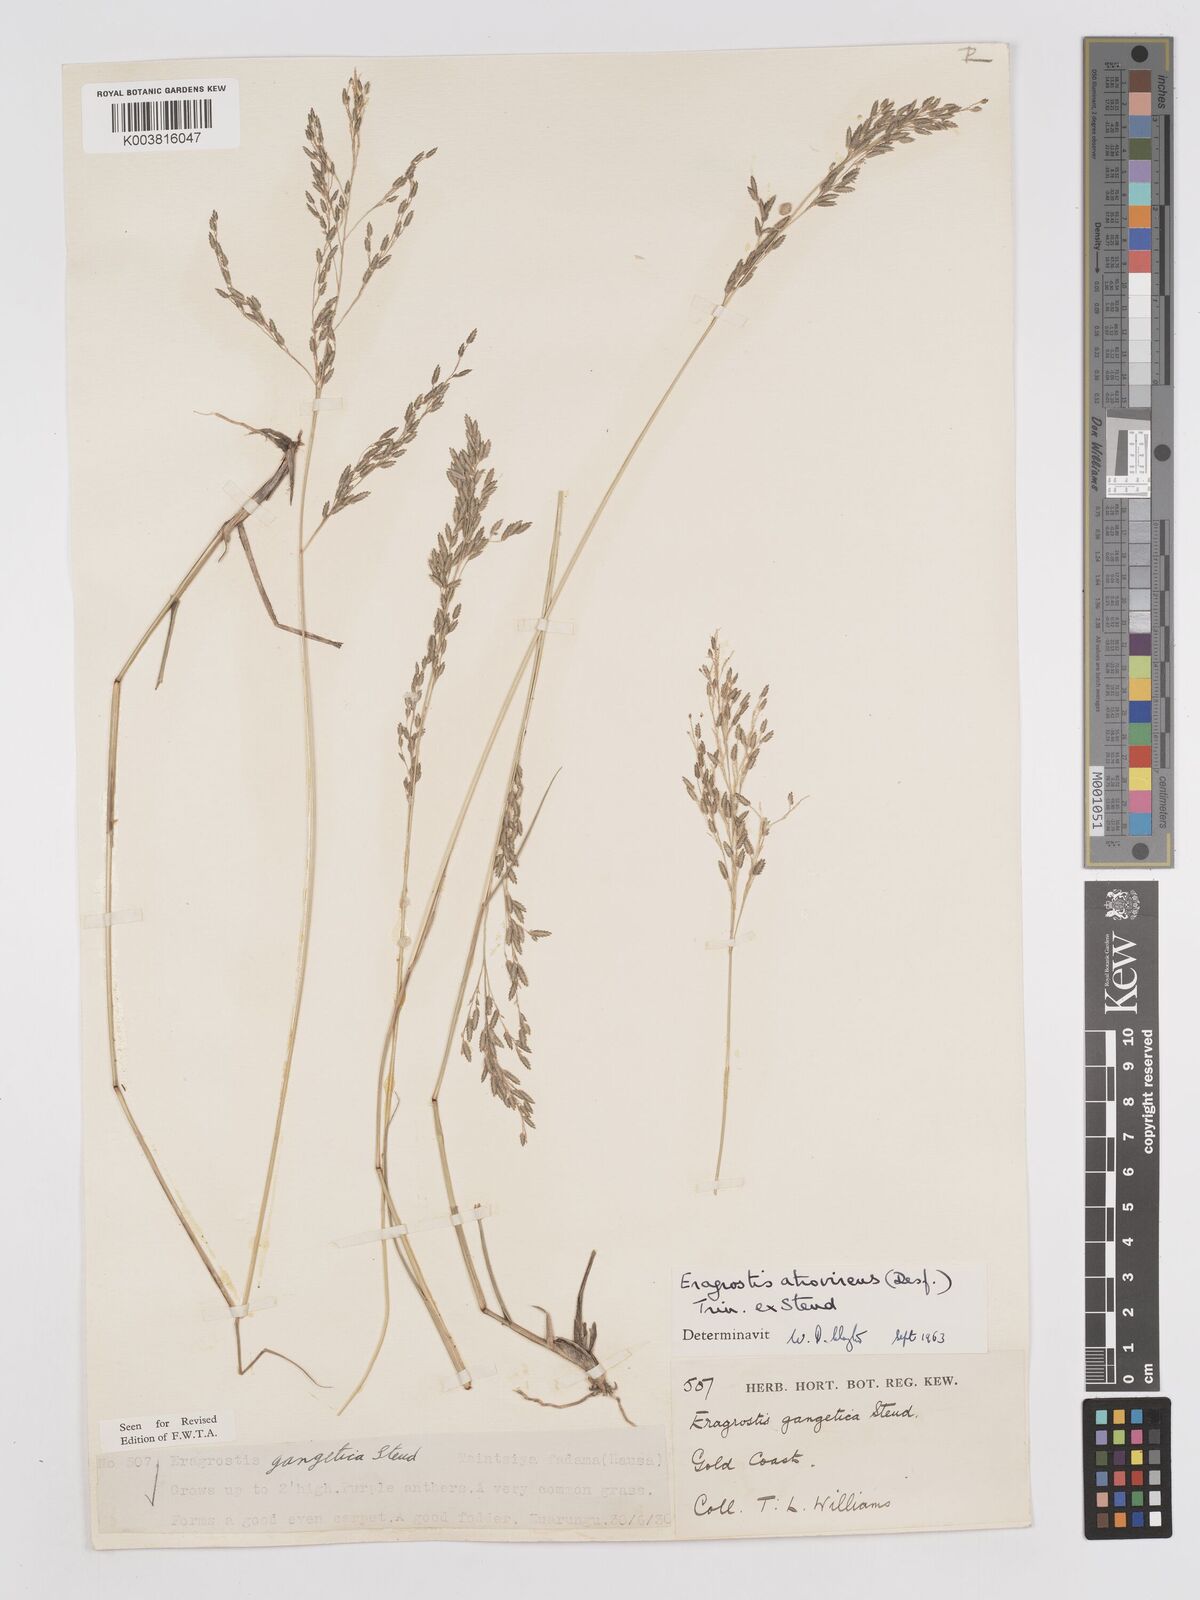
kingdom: Plantae
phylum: Tracheophyta
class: Liliopsida
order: Poales
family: Poaceae
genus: Eragrostis
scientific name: Eragrostis atrovirens
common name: Thalia lovegrass
